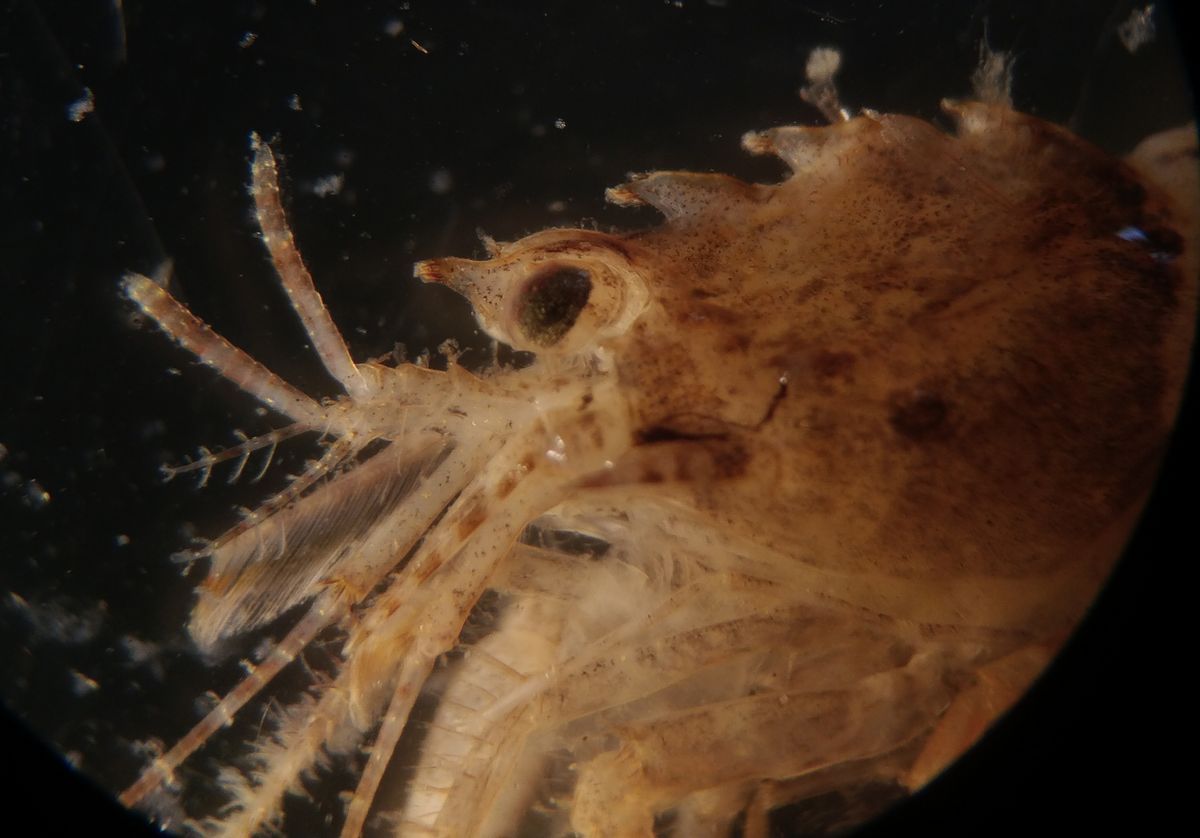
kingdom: Animalia
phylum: Arthropoda
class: Malacostraca
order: Decapoda
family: Crangonidae
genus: Sclerocrangon
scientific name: Sclerocrangon boreas
